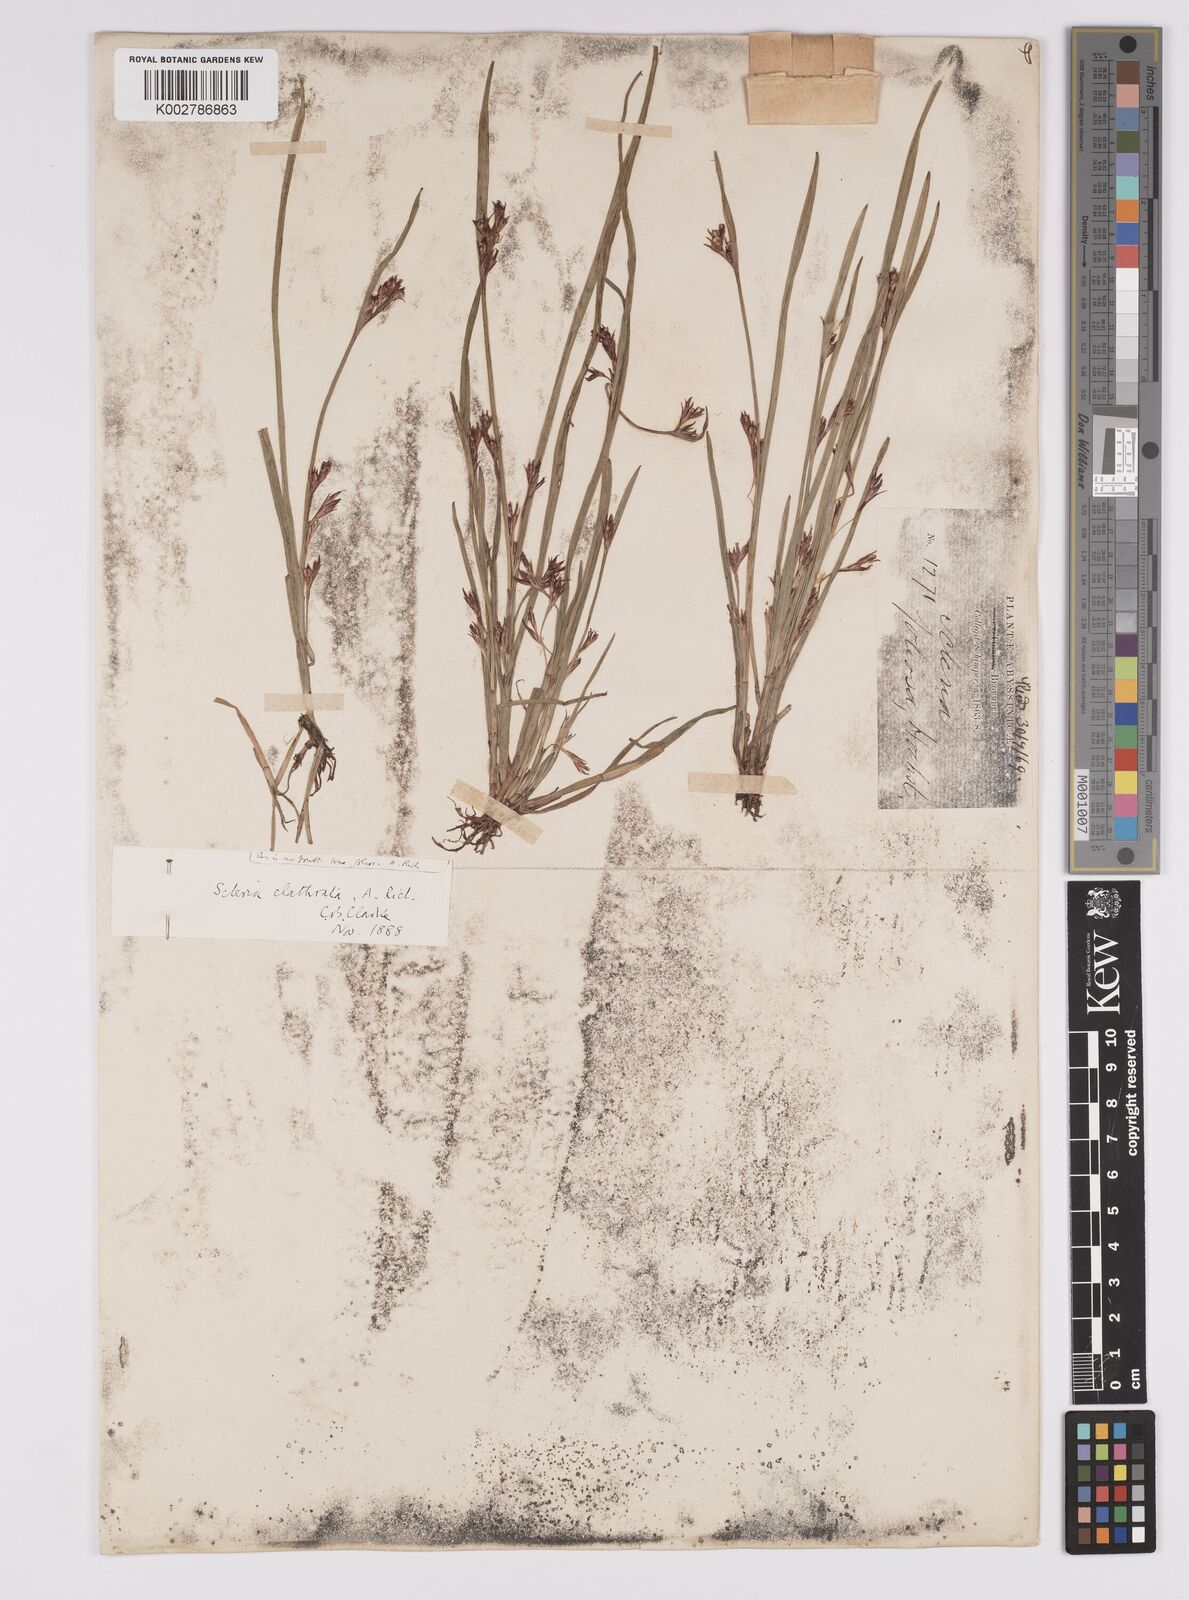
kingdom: Plantae
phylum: Tracheophyta
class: Liliopsida
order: Poales
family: Cyperaceae
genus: Scleria
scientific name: Scleria clathrata
